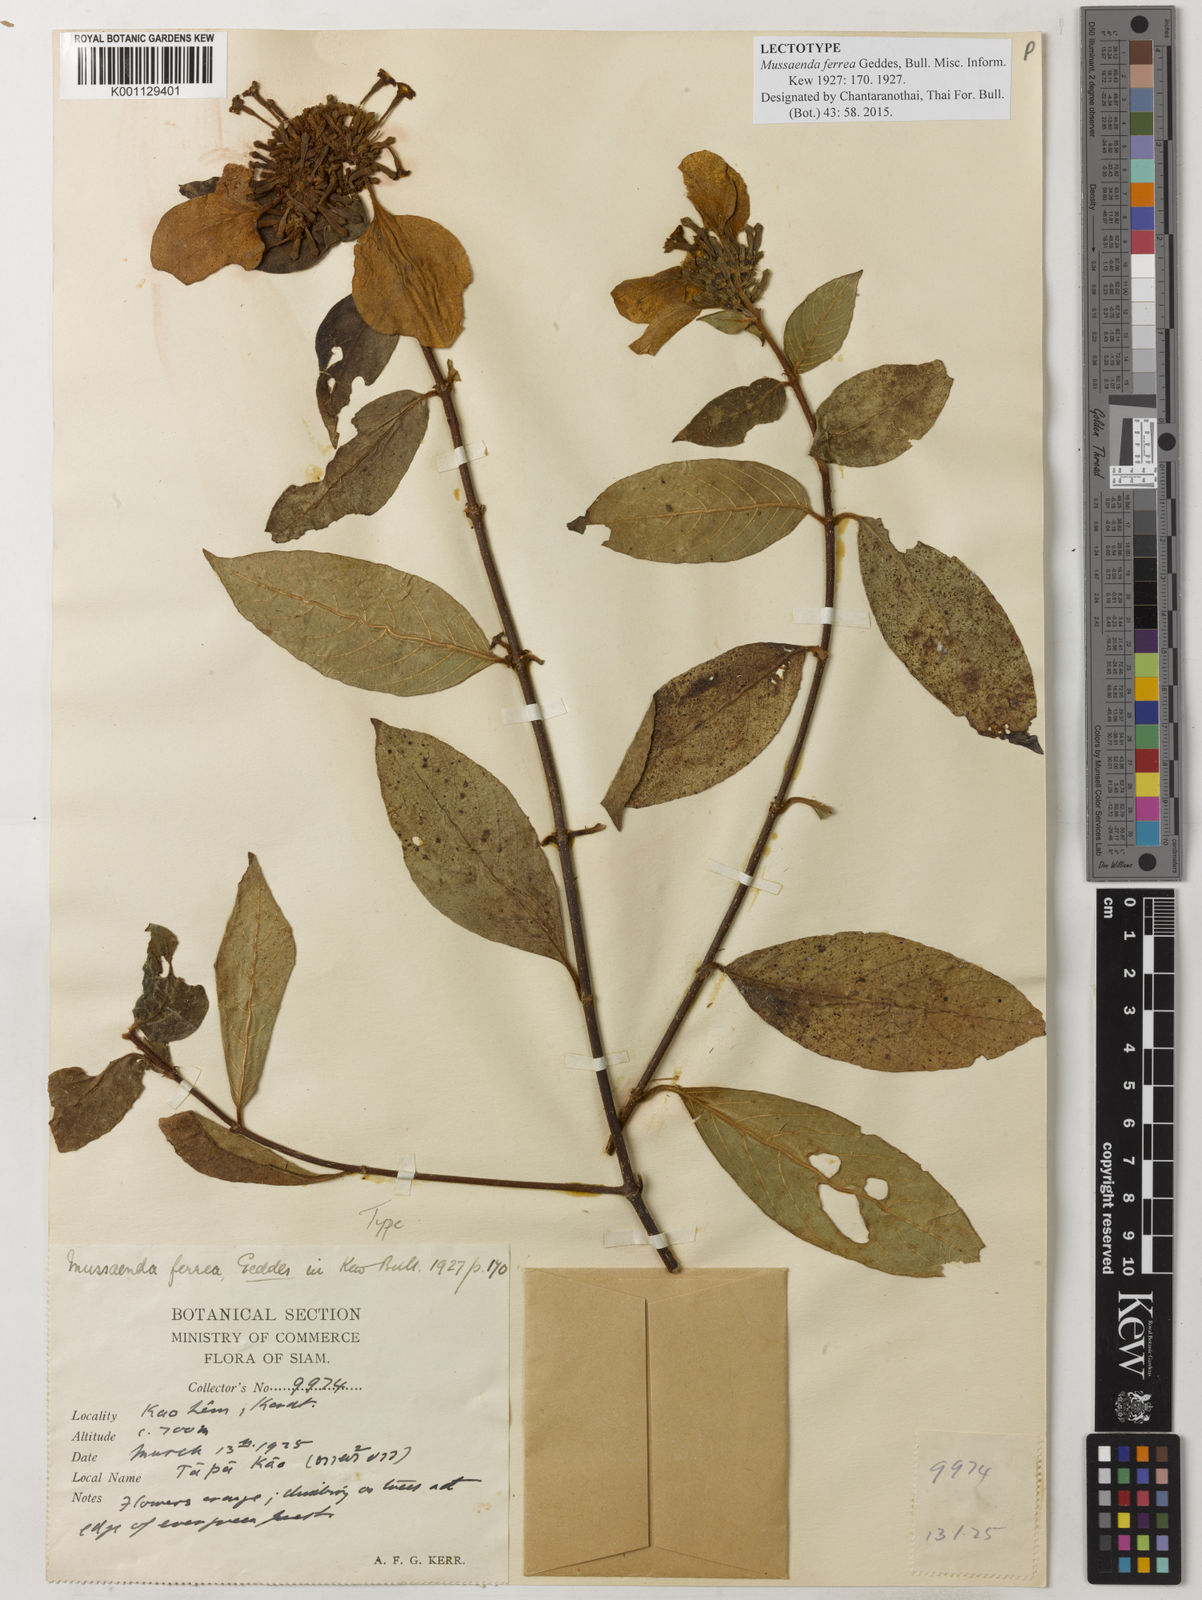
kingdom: Plantae
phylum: Tracheophyta
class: Magnoliopsida
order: Gentianales
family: Rubiaceae
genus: Mussaenda
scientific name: Mussaenda sanderiana
